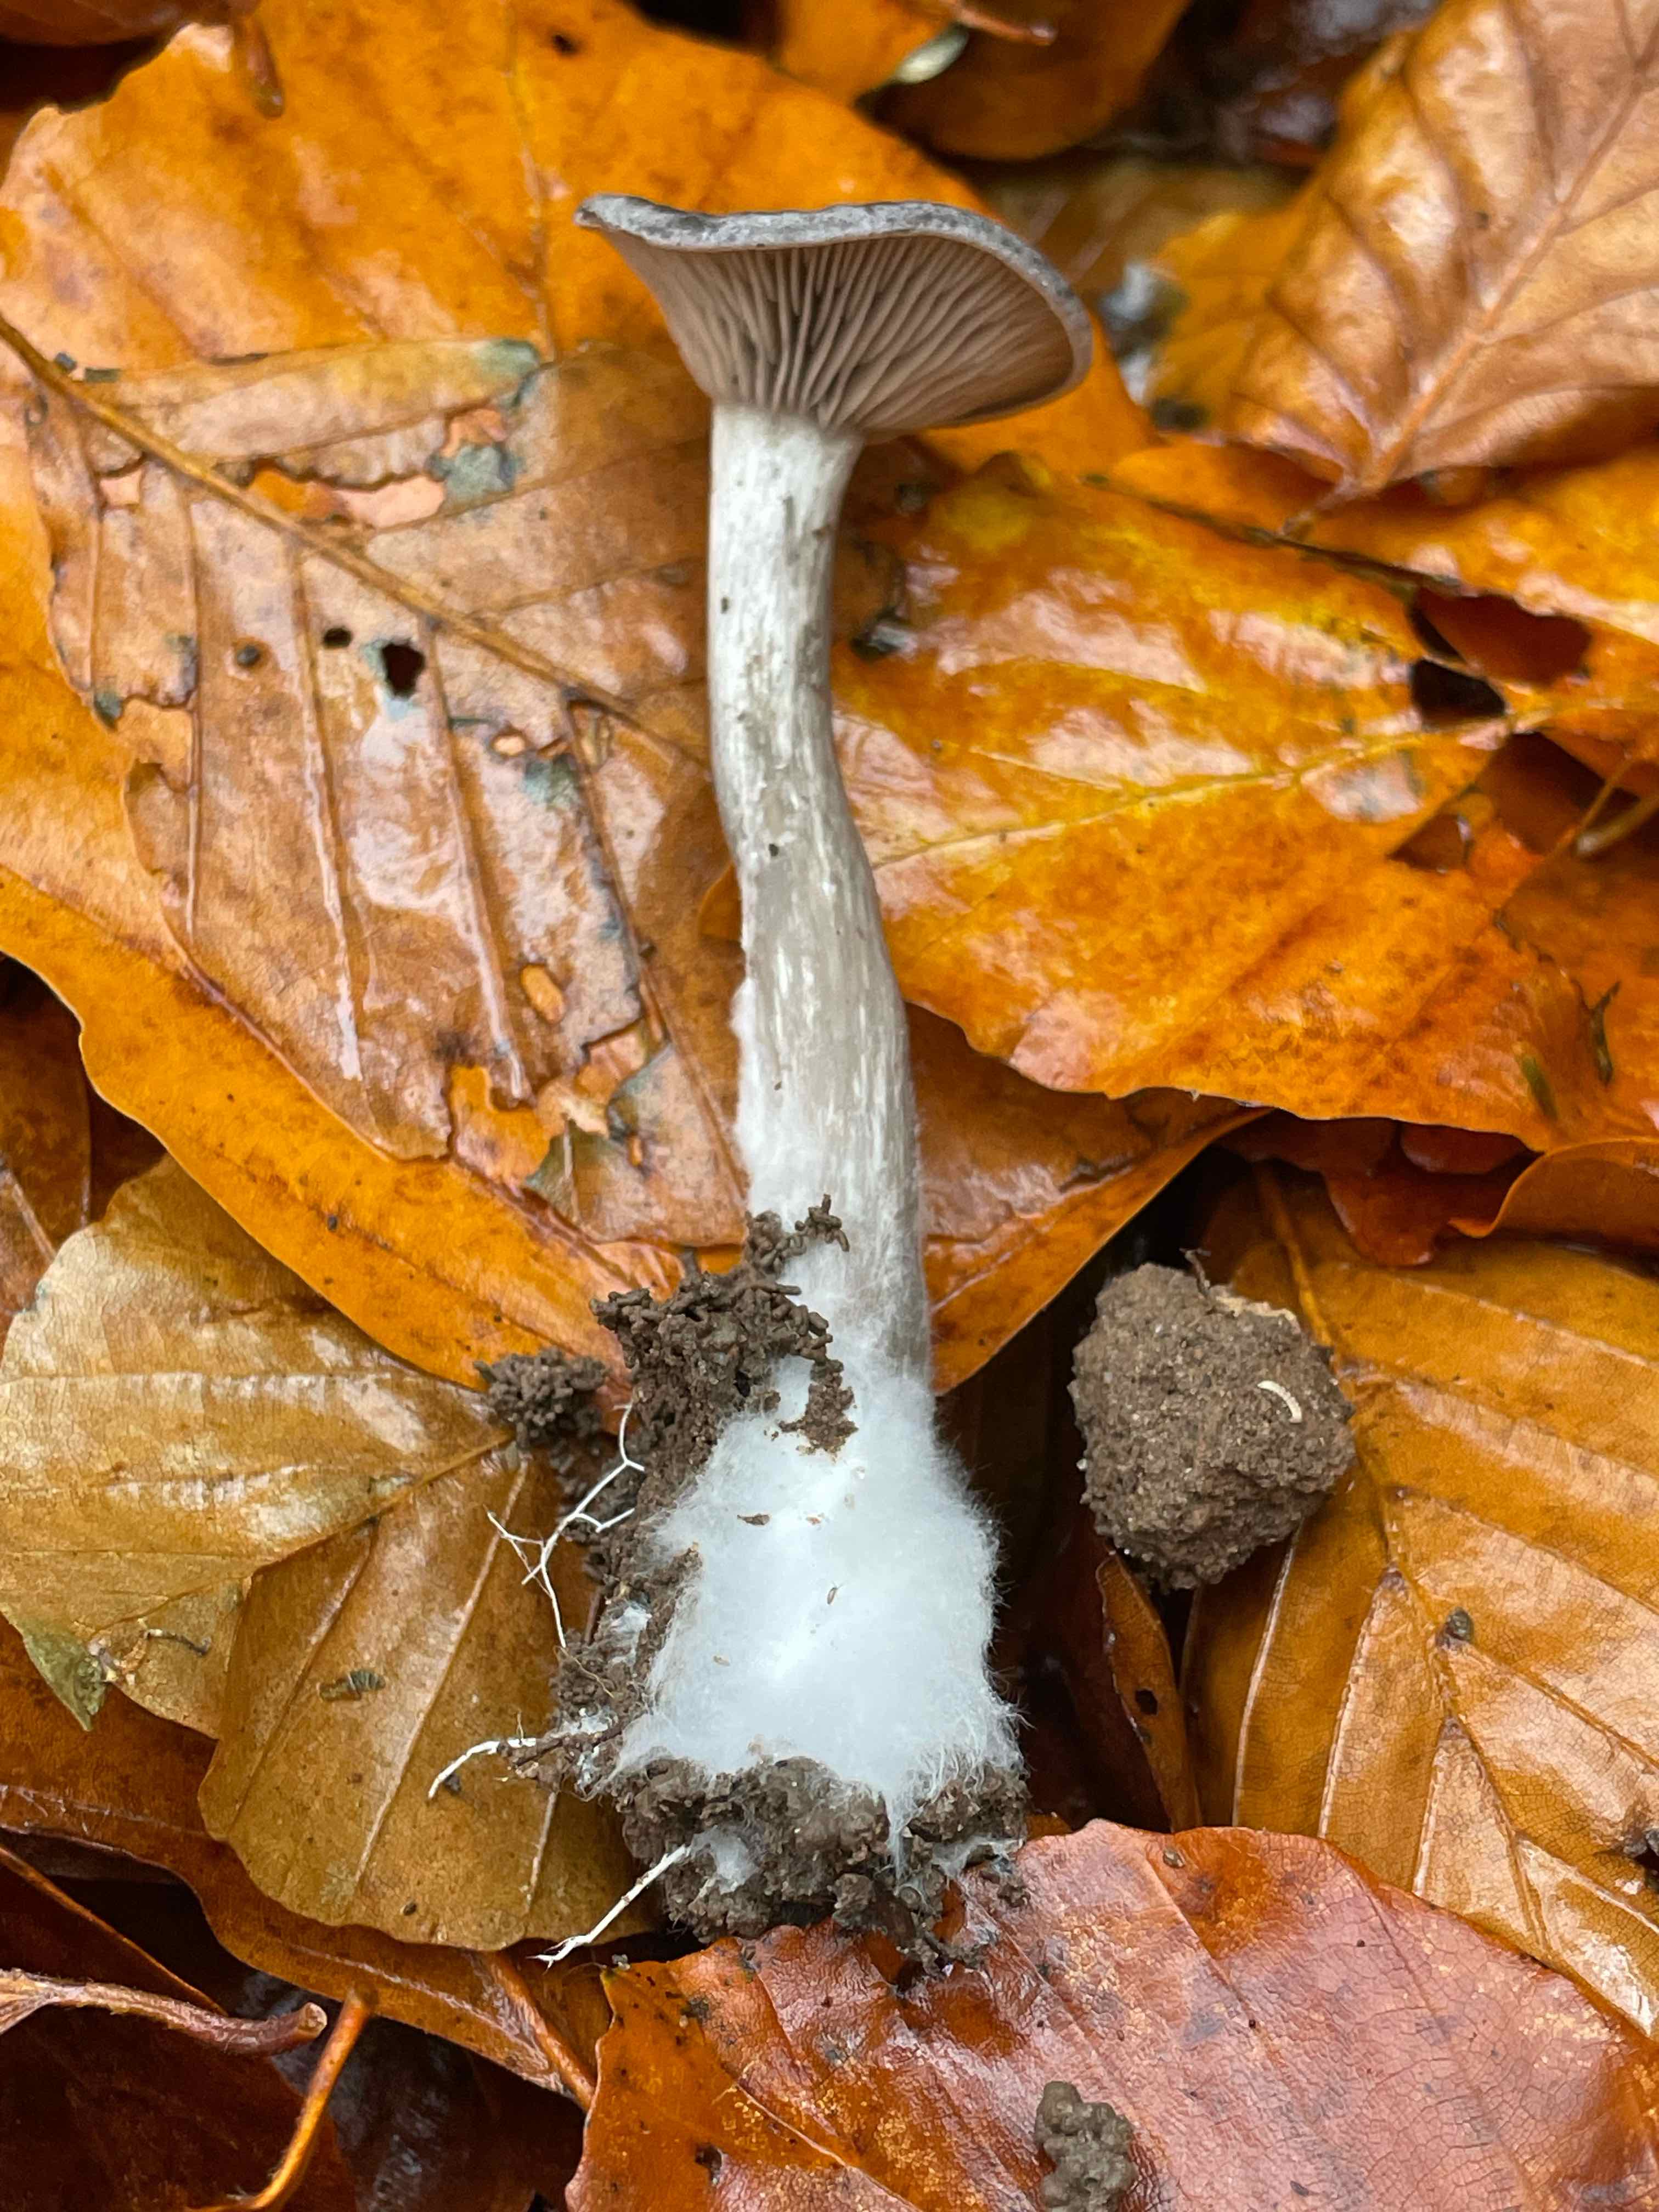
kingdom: Fungi
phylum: Basidiomycota
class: Agaricomycetes
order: Agaricales
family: Pseudoclitocybaceae
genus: Pseudoclitocybe
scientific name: Pseudoclitocybe cyathiformis
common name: almindelig bægertragthat
